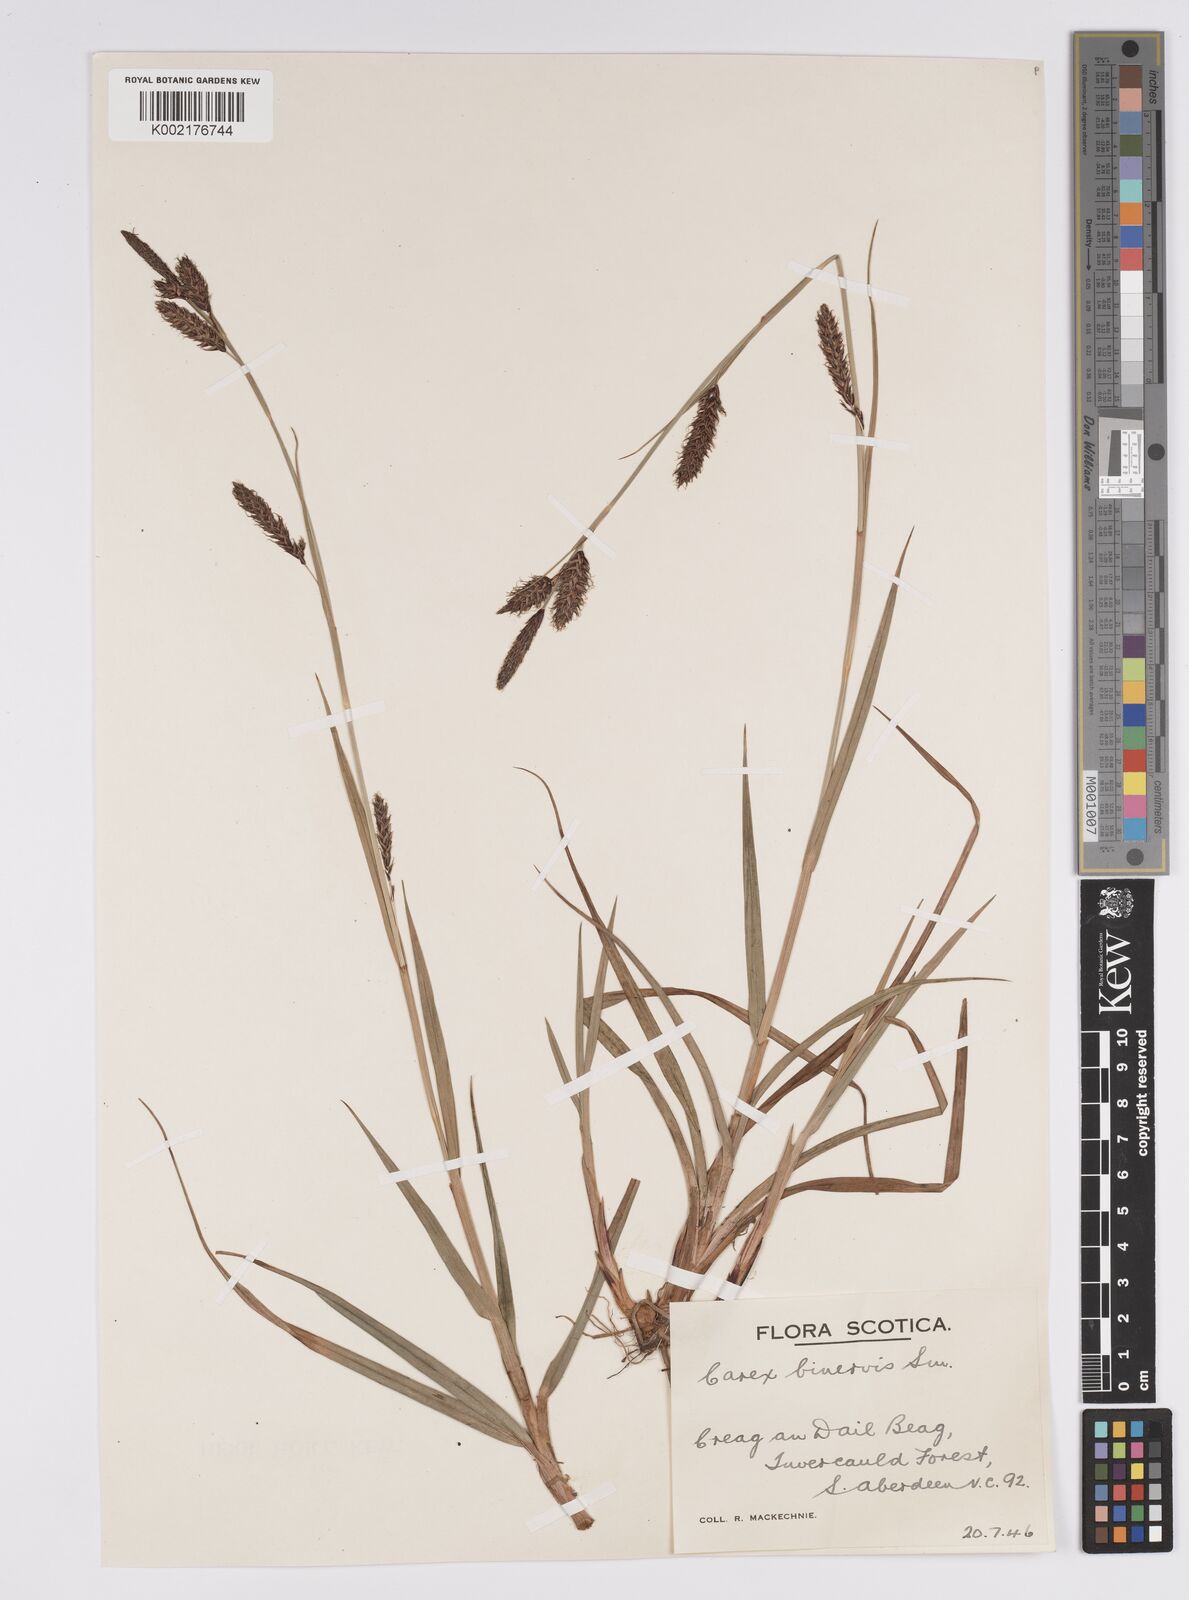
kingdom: Plantae
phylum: Tracheophyta
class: Liliopsida
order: Poales
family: Cyperaceae
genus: Carex
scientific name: Carex binervis
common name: Green-ribbed sedge
